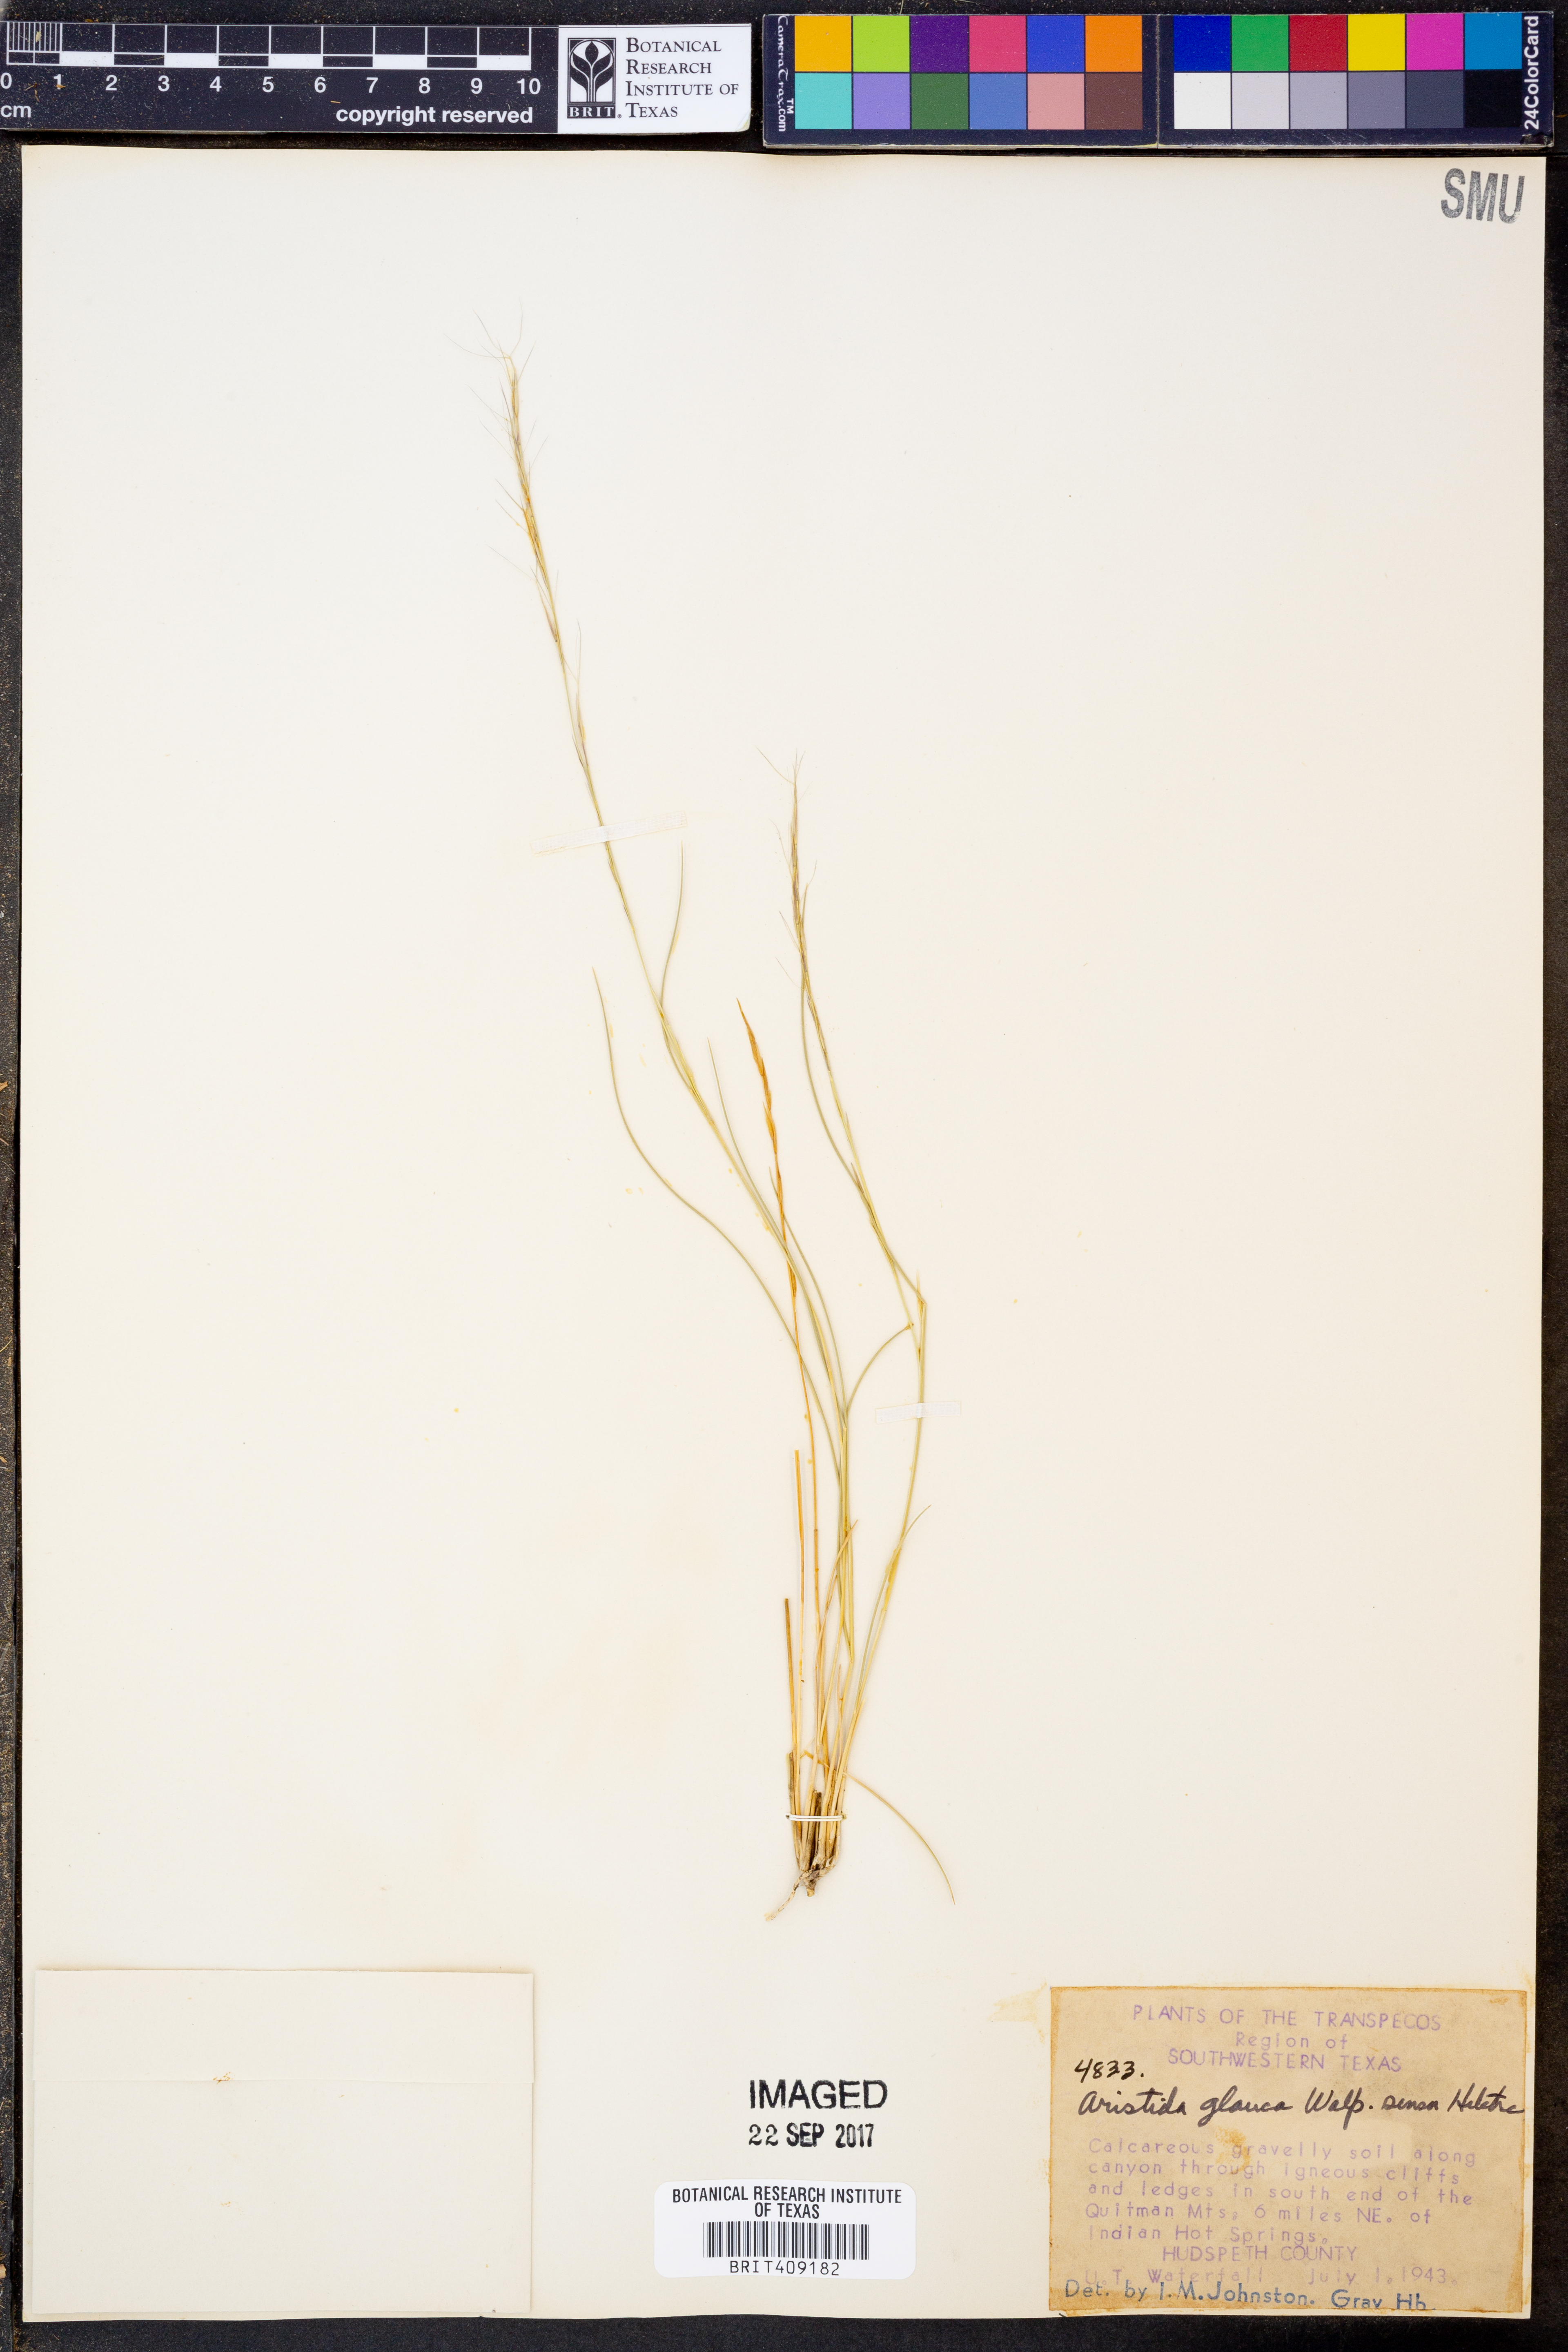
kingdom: Plantae
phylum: Tracheophyta
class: Liliopsida
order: Poales
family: Poaceae
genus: Aristida
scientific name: Aristida glauca
